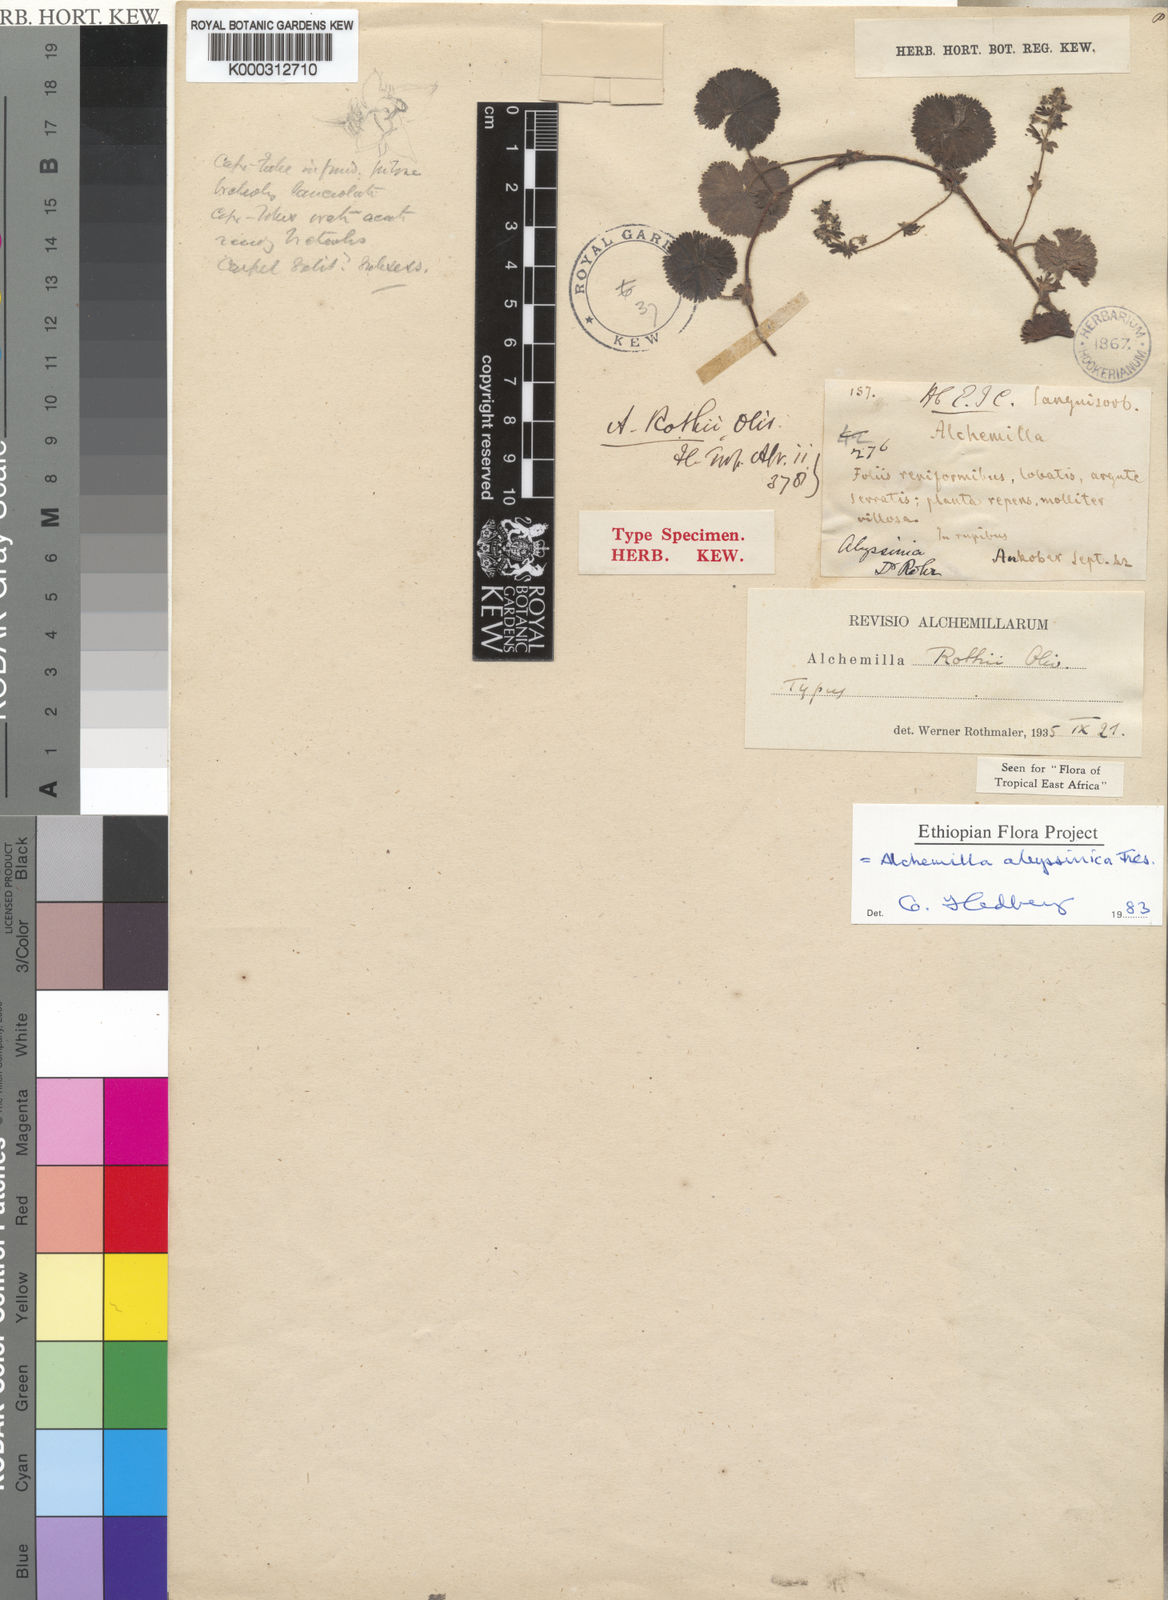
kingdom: Plantae
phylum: Tracheophyta
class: Magnoliopsida
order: Rosales
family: Rosaceae
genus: Alchemilla
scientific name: Alchemilla abyssinica
